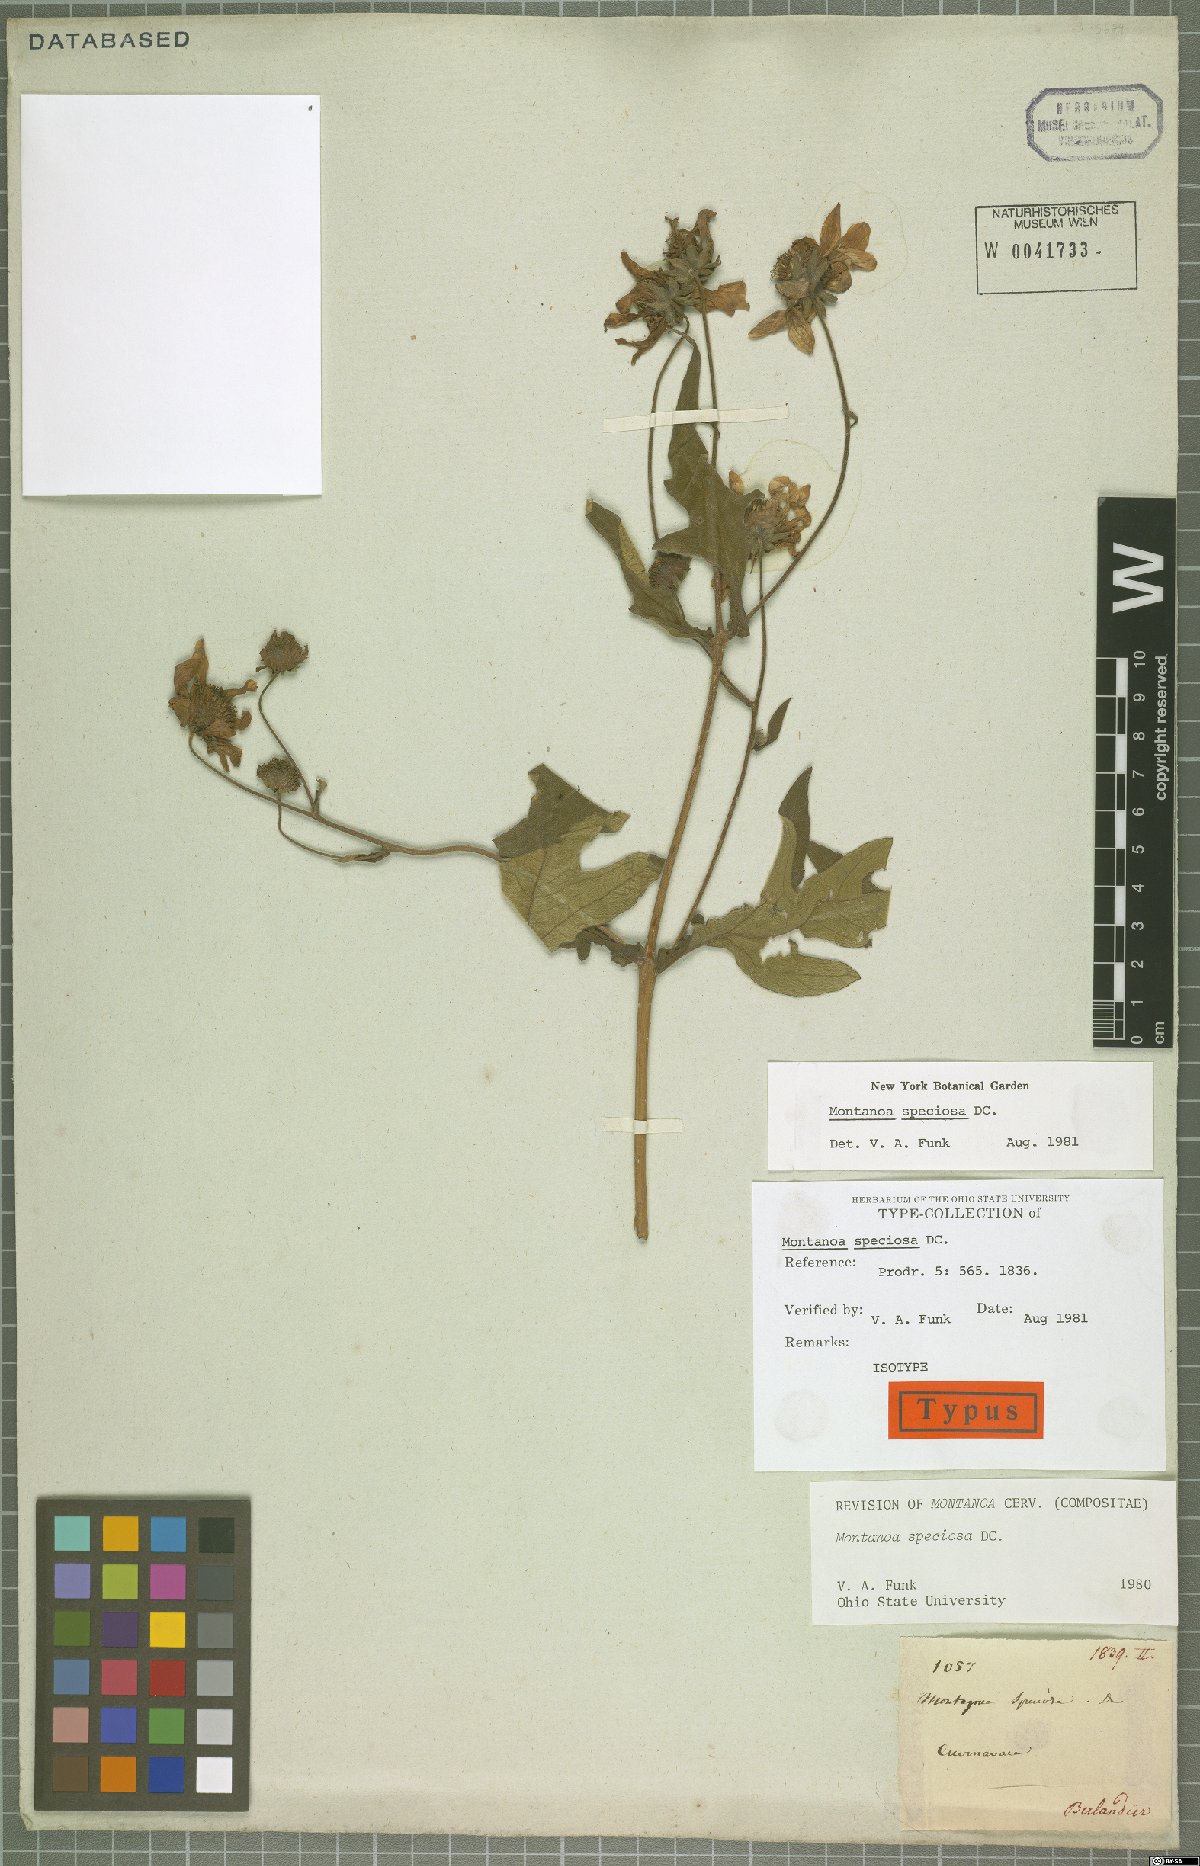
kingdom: Plantae
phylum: Tracheophyta
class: Magnoliopsida
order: Asterales
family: Asteraceae
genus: Montanoa
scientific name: Montanoa speciosa
